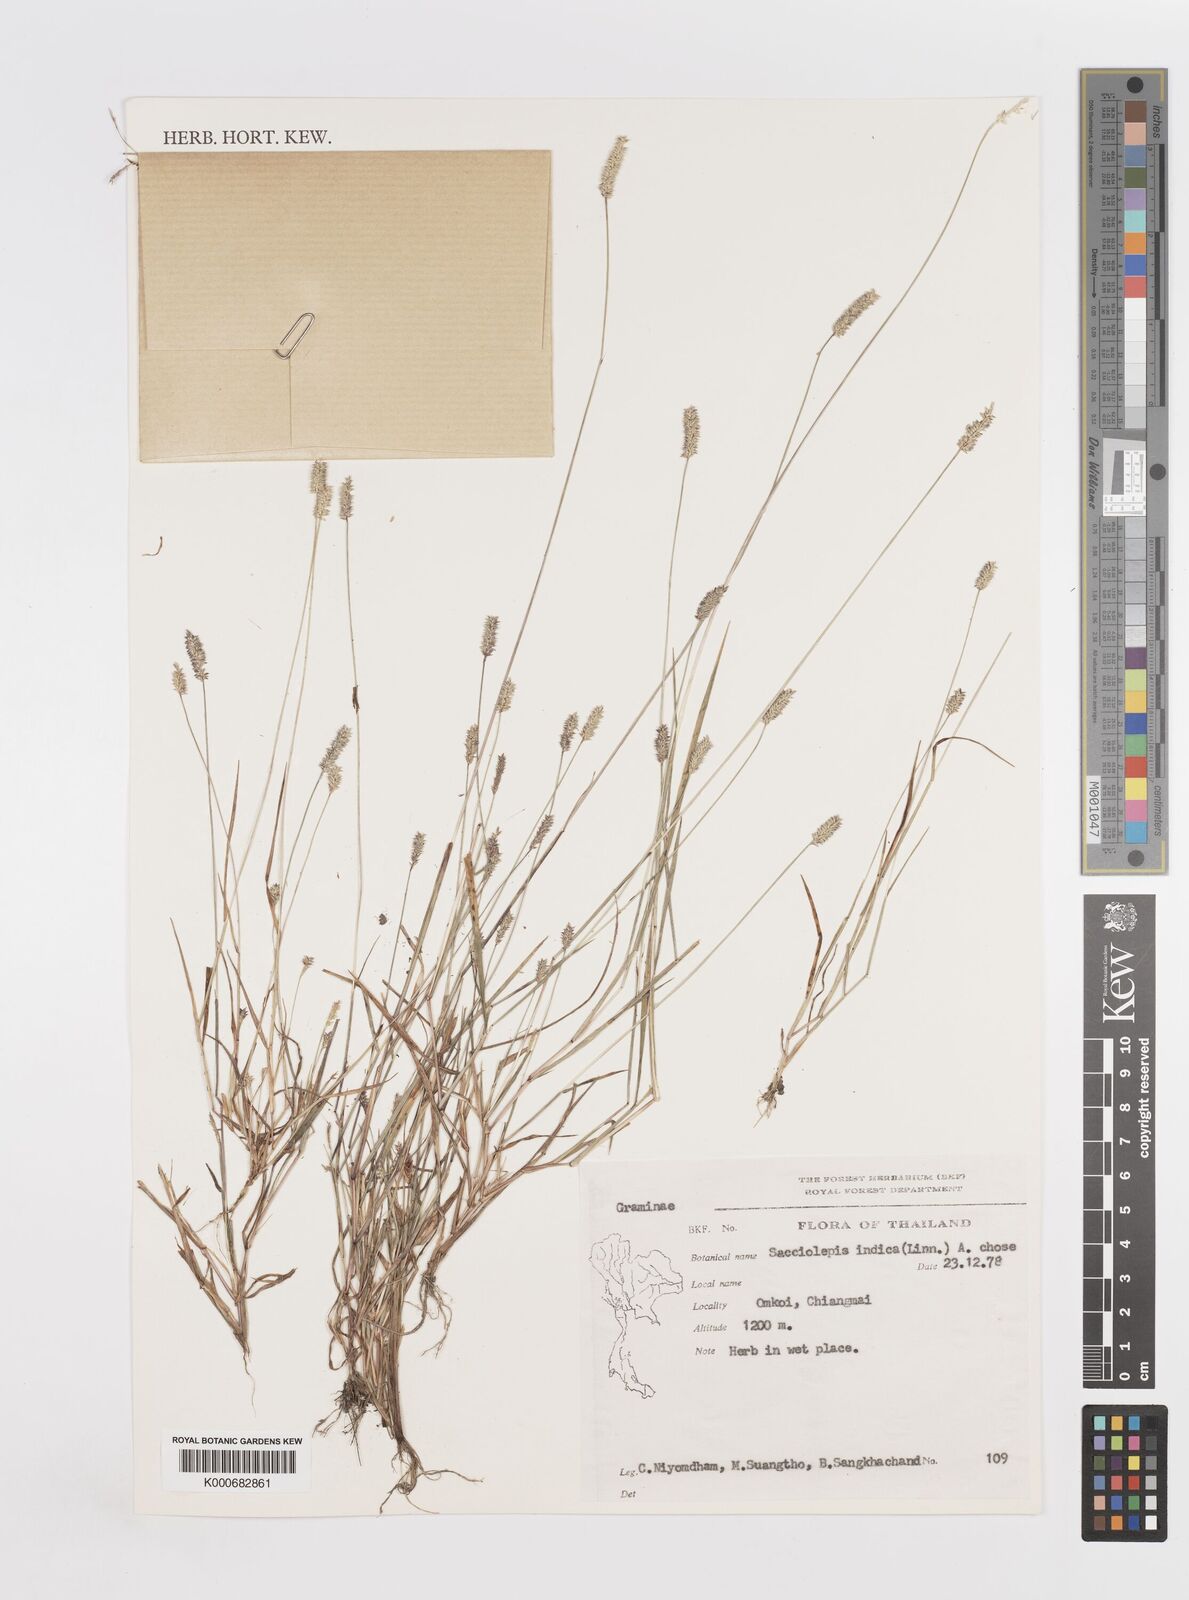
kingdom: Plantae
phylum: Tracheophyta
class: Liliopsida
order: Poales
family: Poaceae
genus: Sacciolepis
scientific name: Sacciolepis indica
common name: Glenwoodgrass
